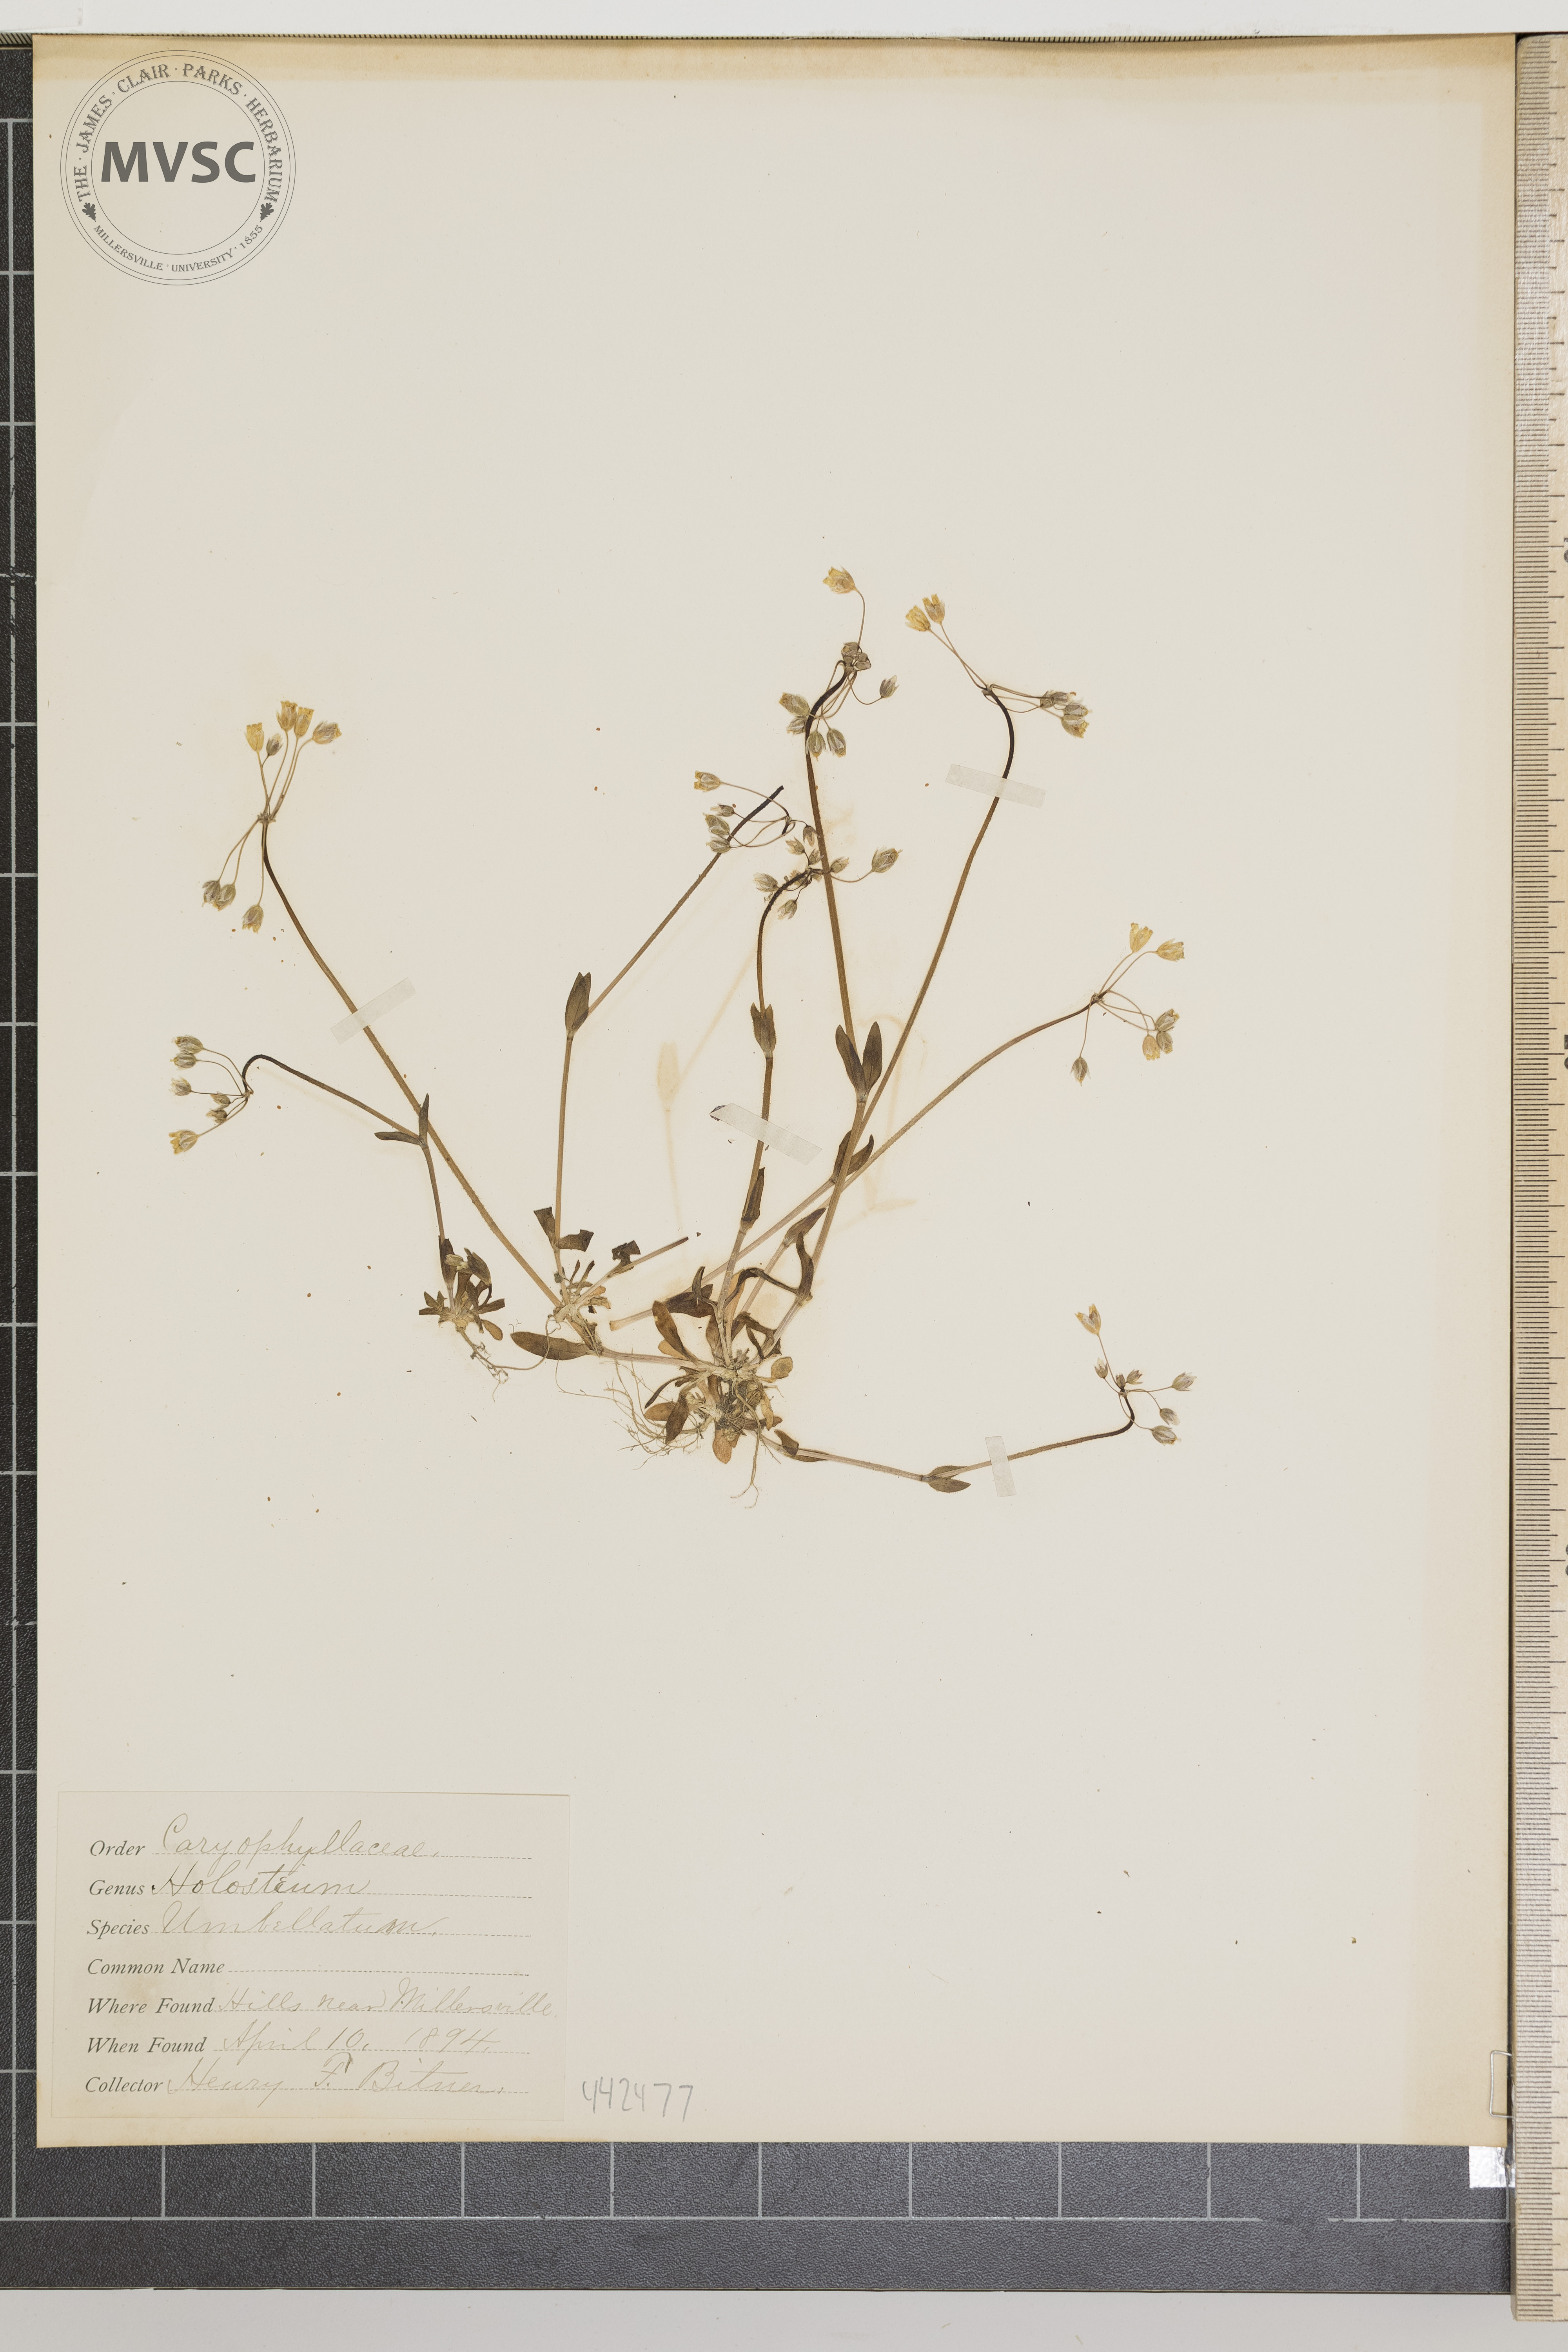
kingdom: Plantae
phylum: Tracheophyta
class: Magnoliopsida
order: Caryophyllales
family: Caryophyllaceae
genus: Holosteum
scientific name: Holosteum umbellatum
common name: Jagged chickweed
